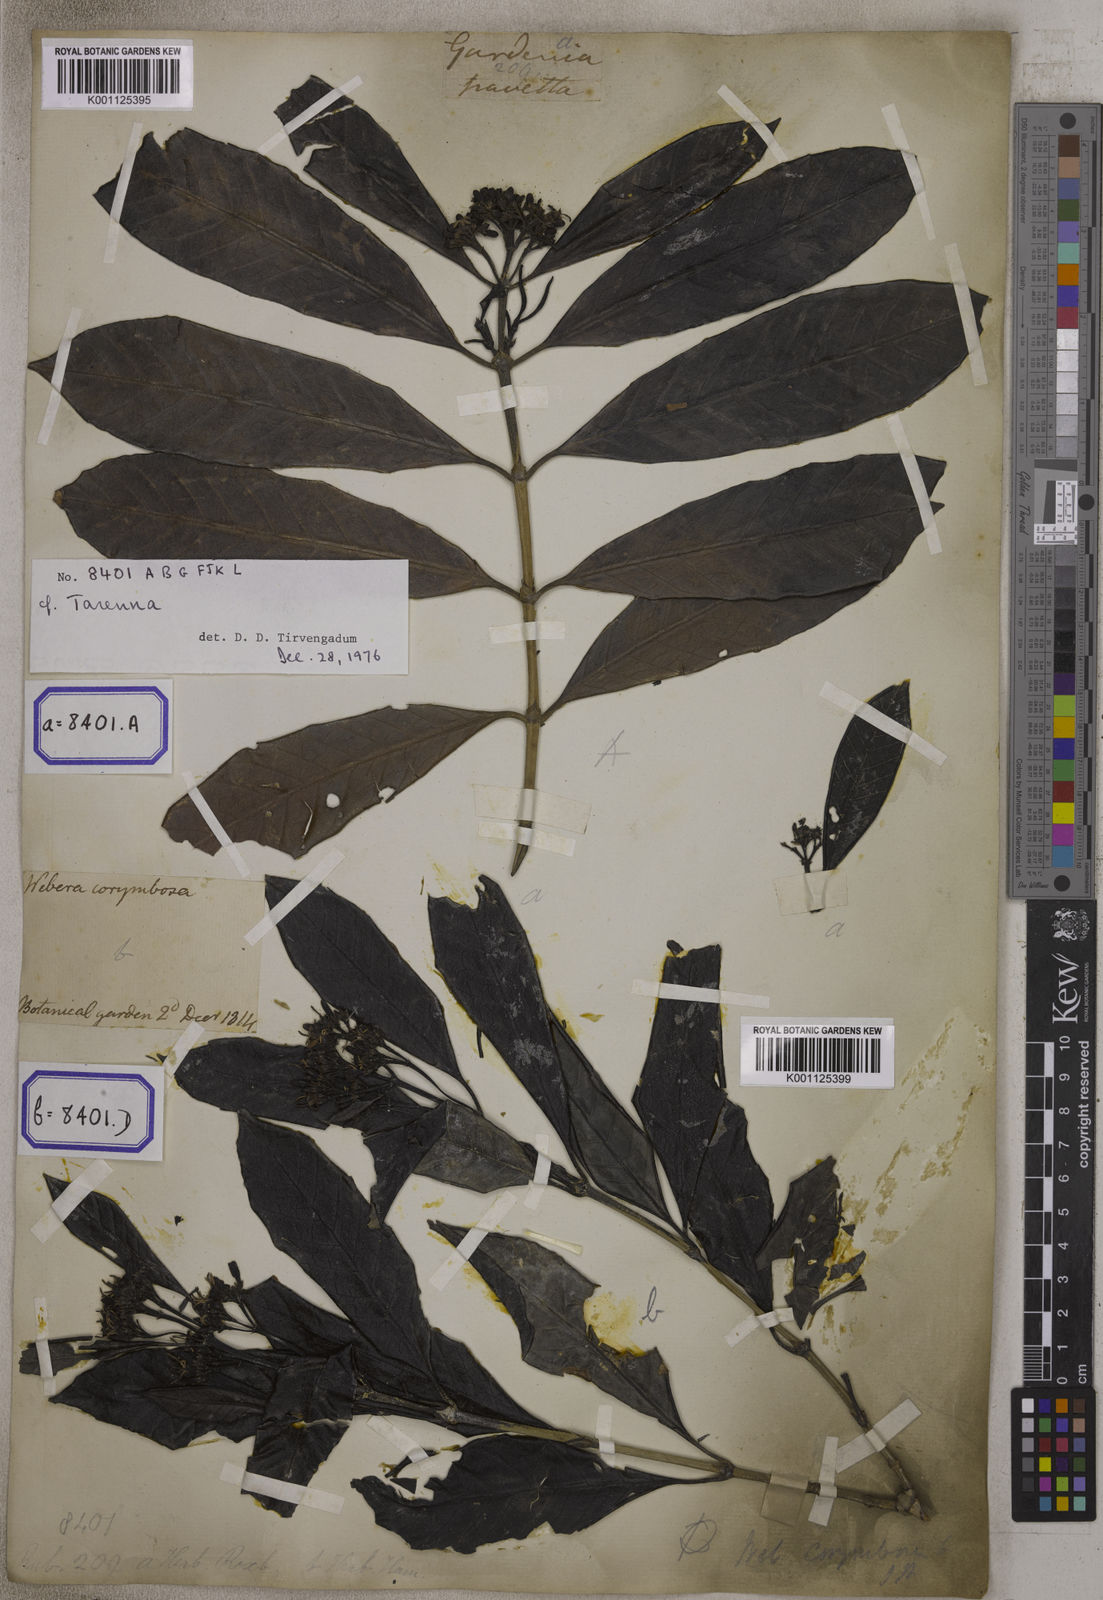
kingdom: Plantae
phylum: Tracheophyta
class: Magnoliopsida
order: Gentianales
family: Rubiaceae
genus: Tarenna
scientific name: Tarenna asiatica
